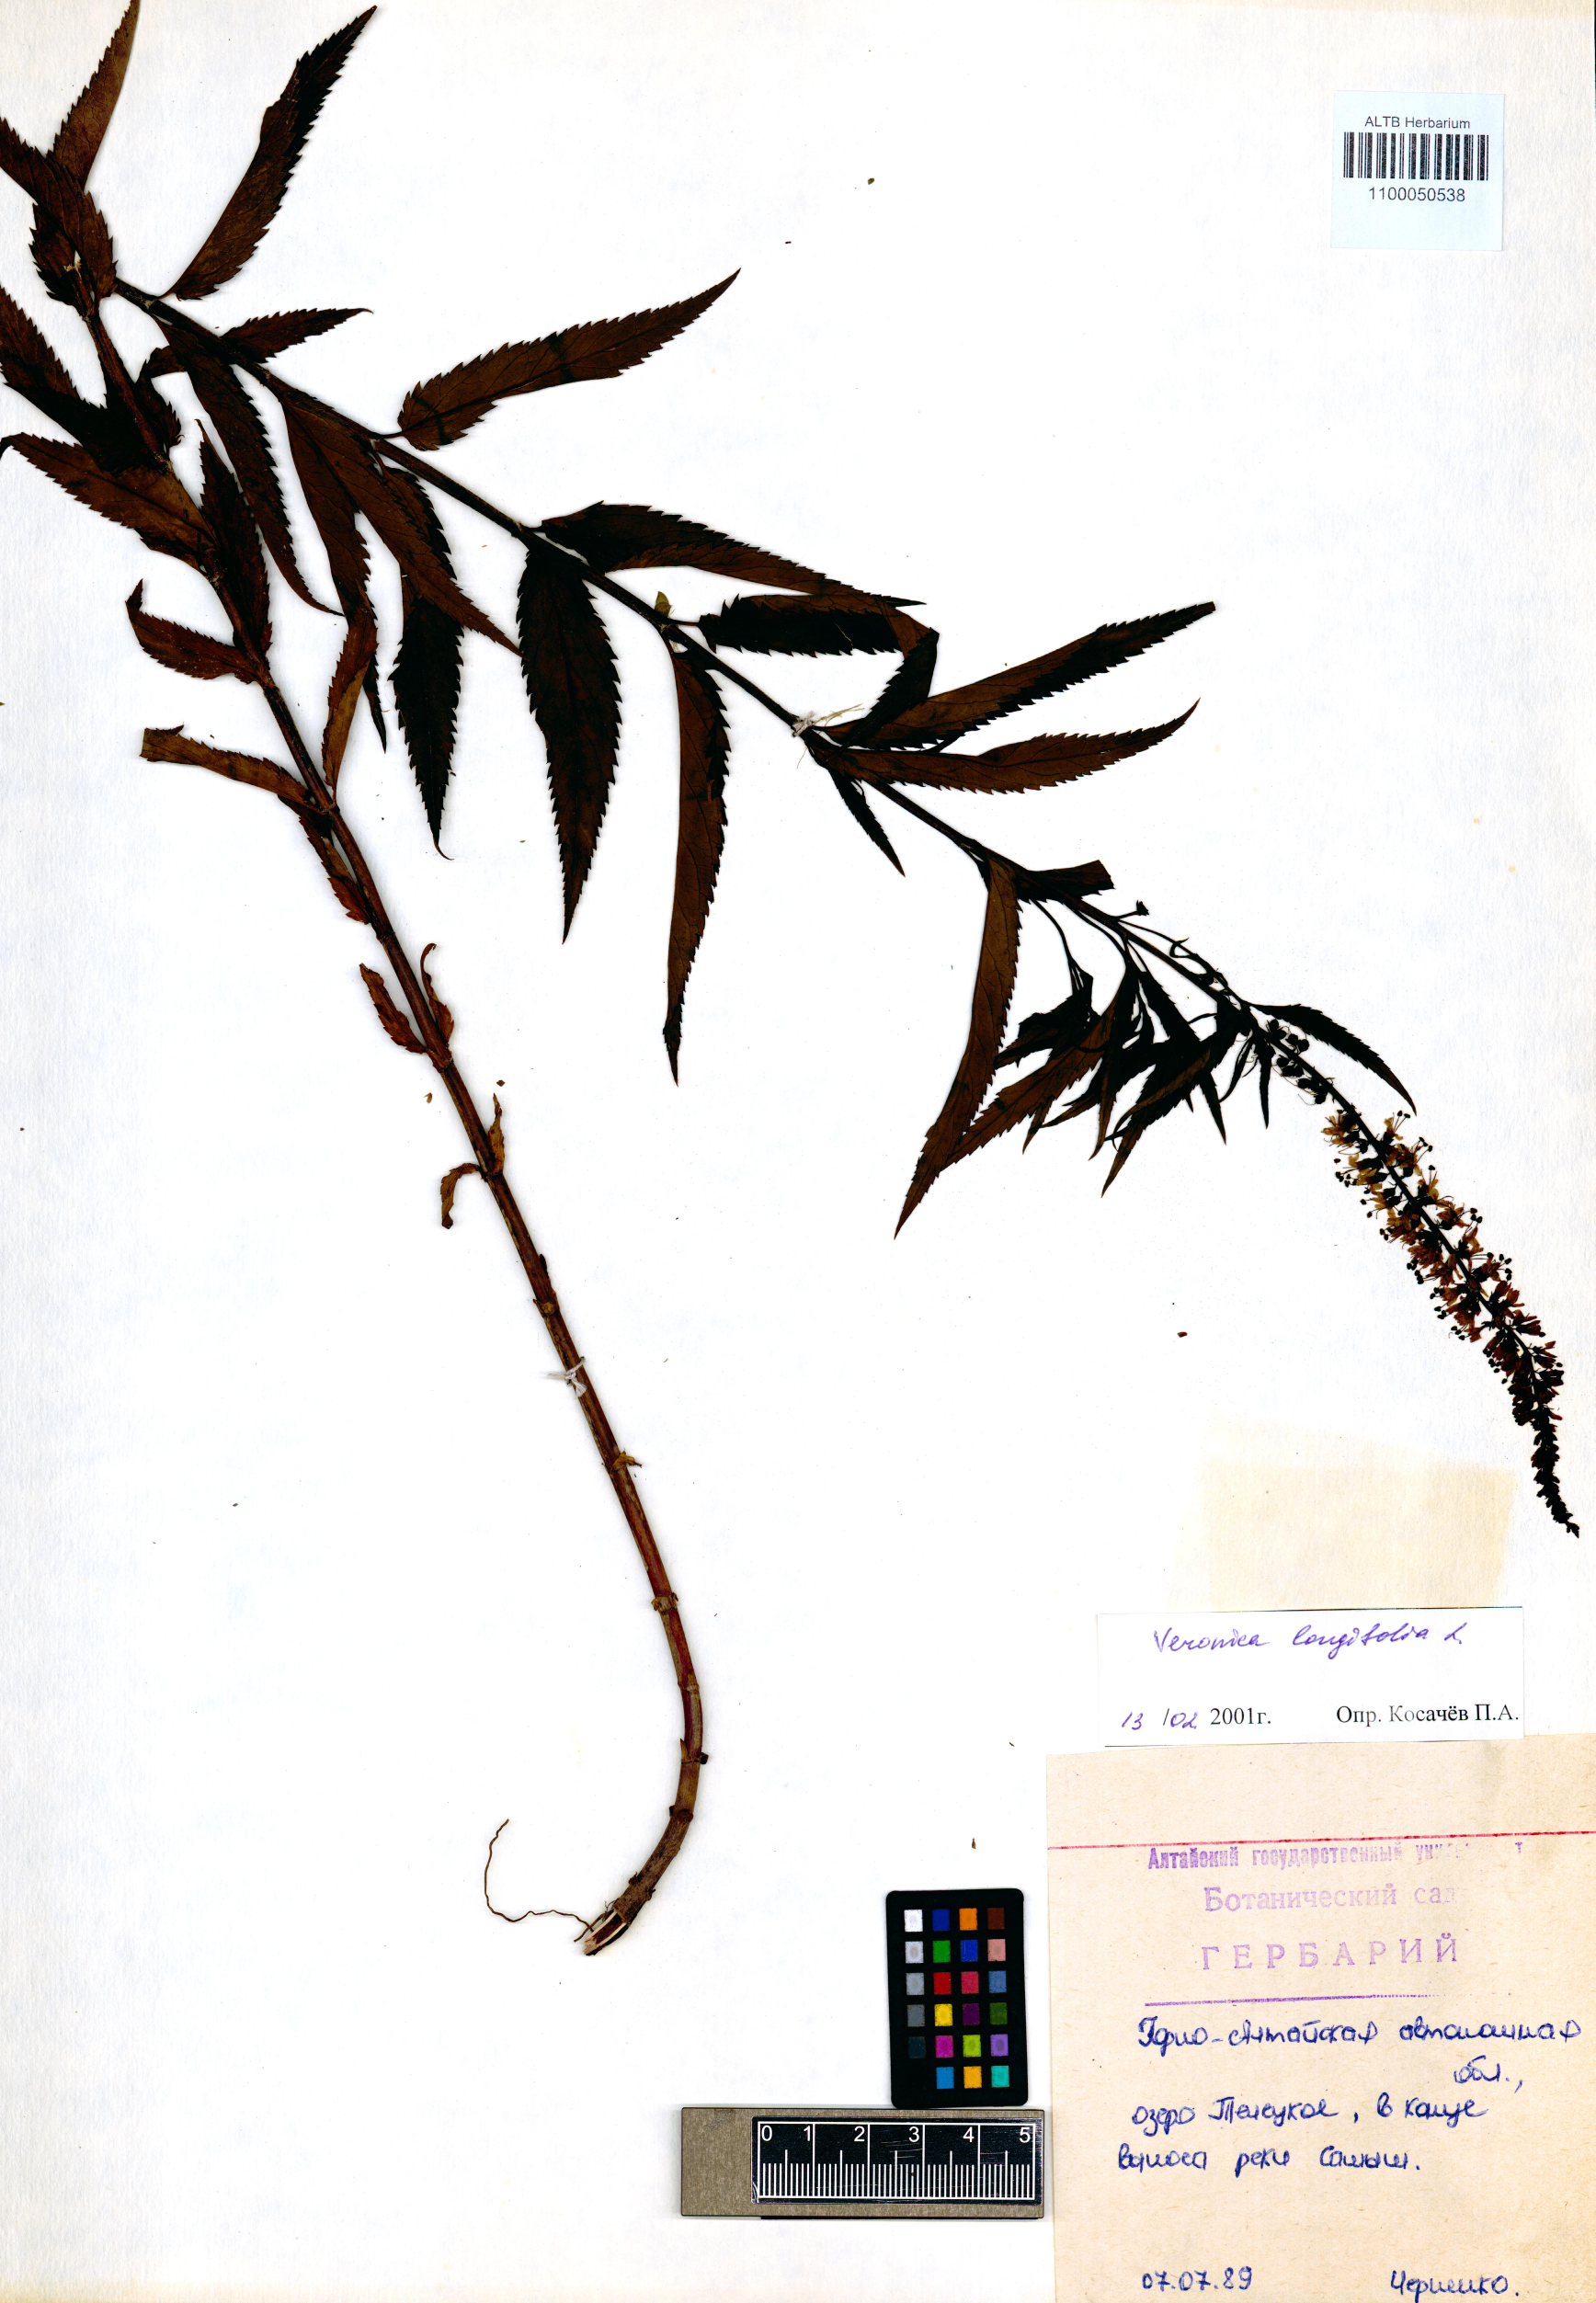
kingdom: Plantae
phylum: Tracheophyta
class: Magnoliopsida
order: Lamiales
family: Plantaginaceae
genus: Veronica
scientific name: Veronica longifolia
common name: Garden speedwell
